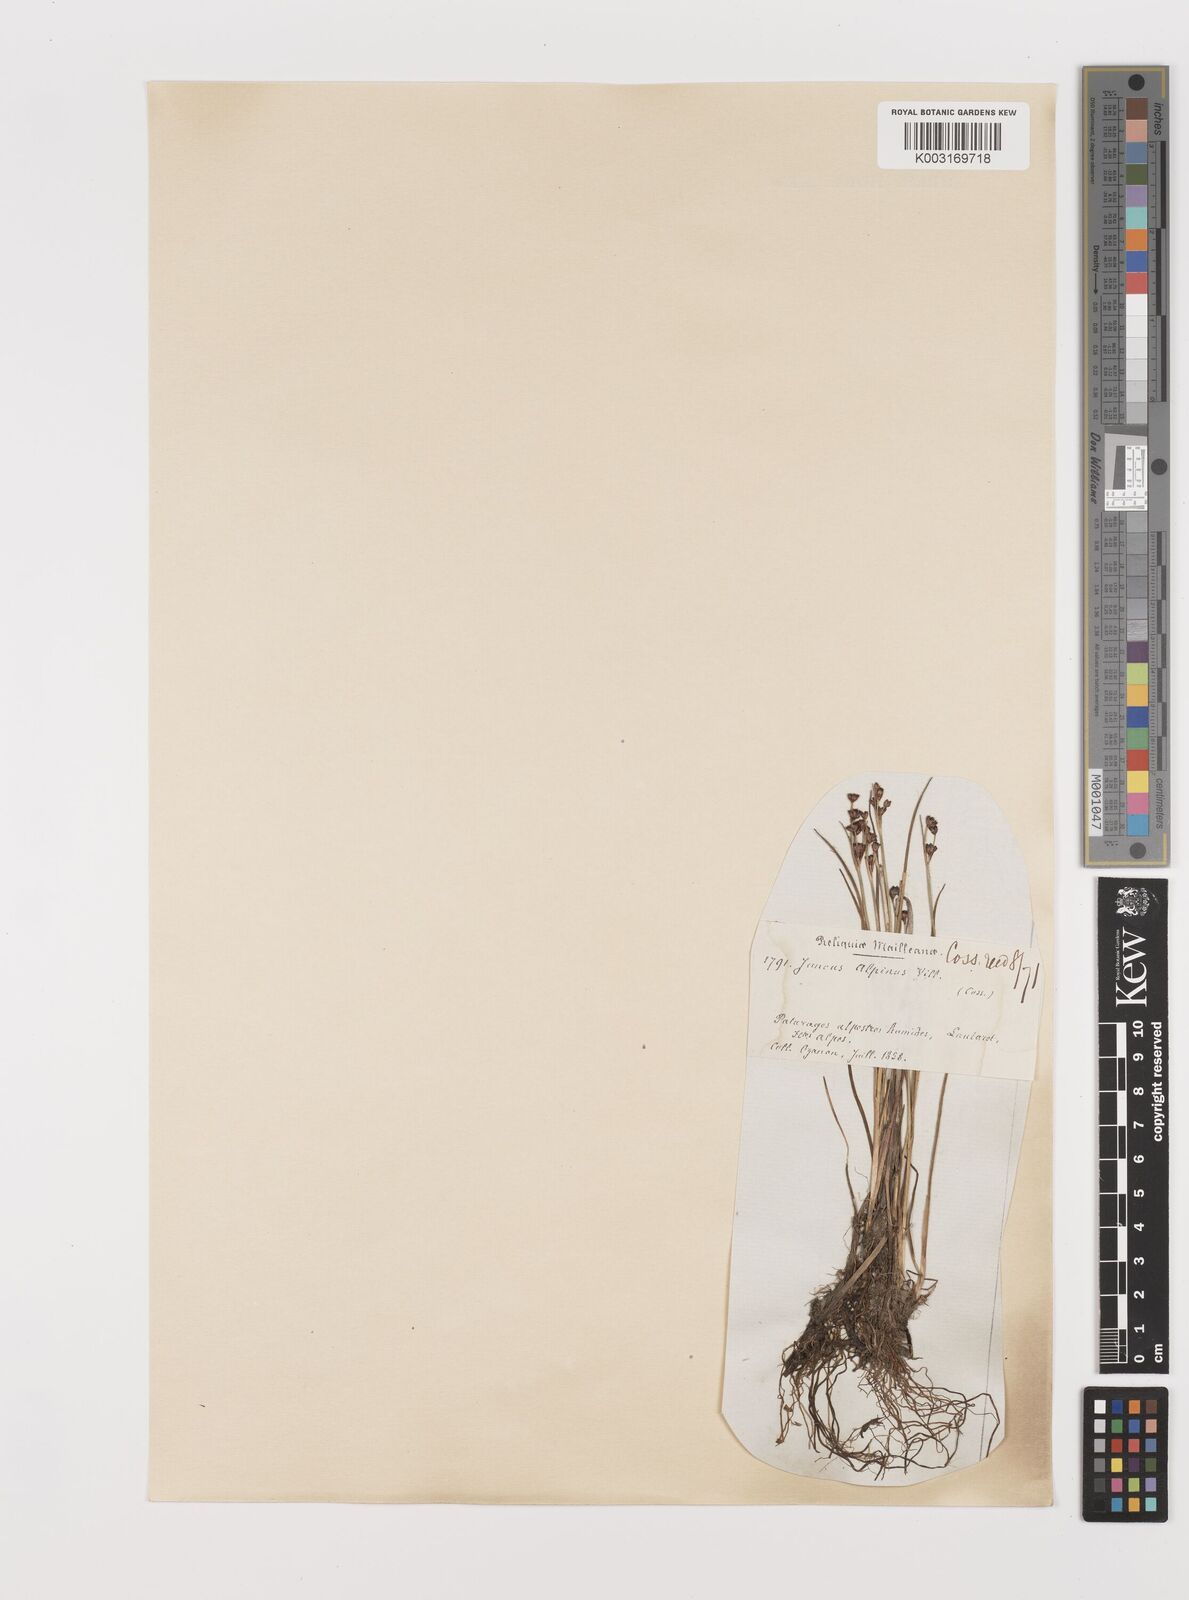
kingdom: Plantae
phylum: Tracheophyta
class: Liliopsida
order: Poales
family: Juncaceae
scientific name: Juncaceae
